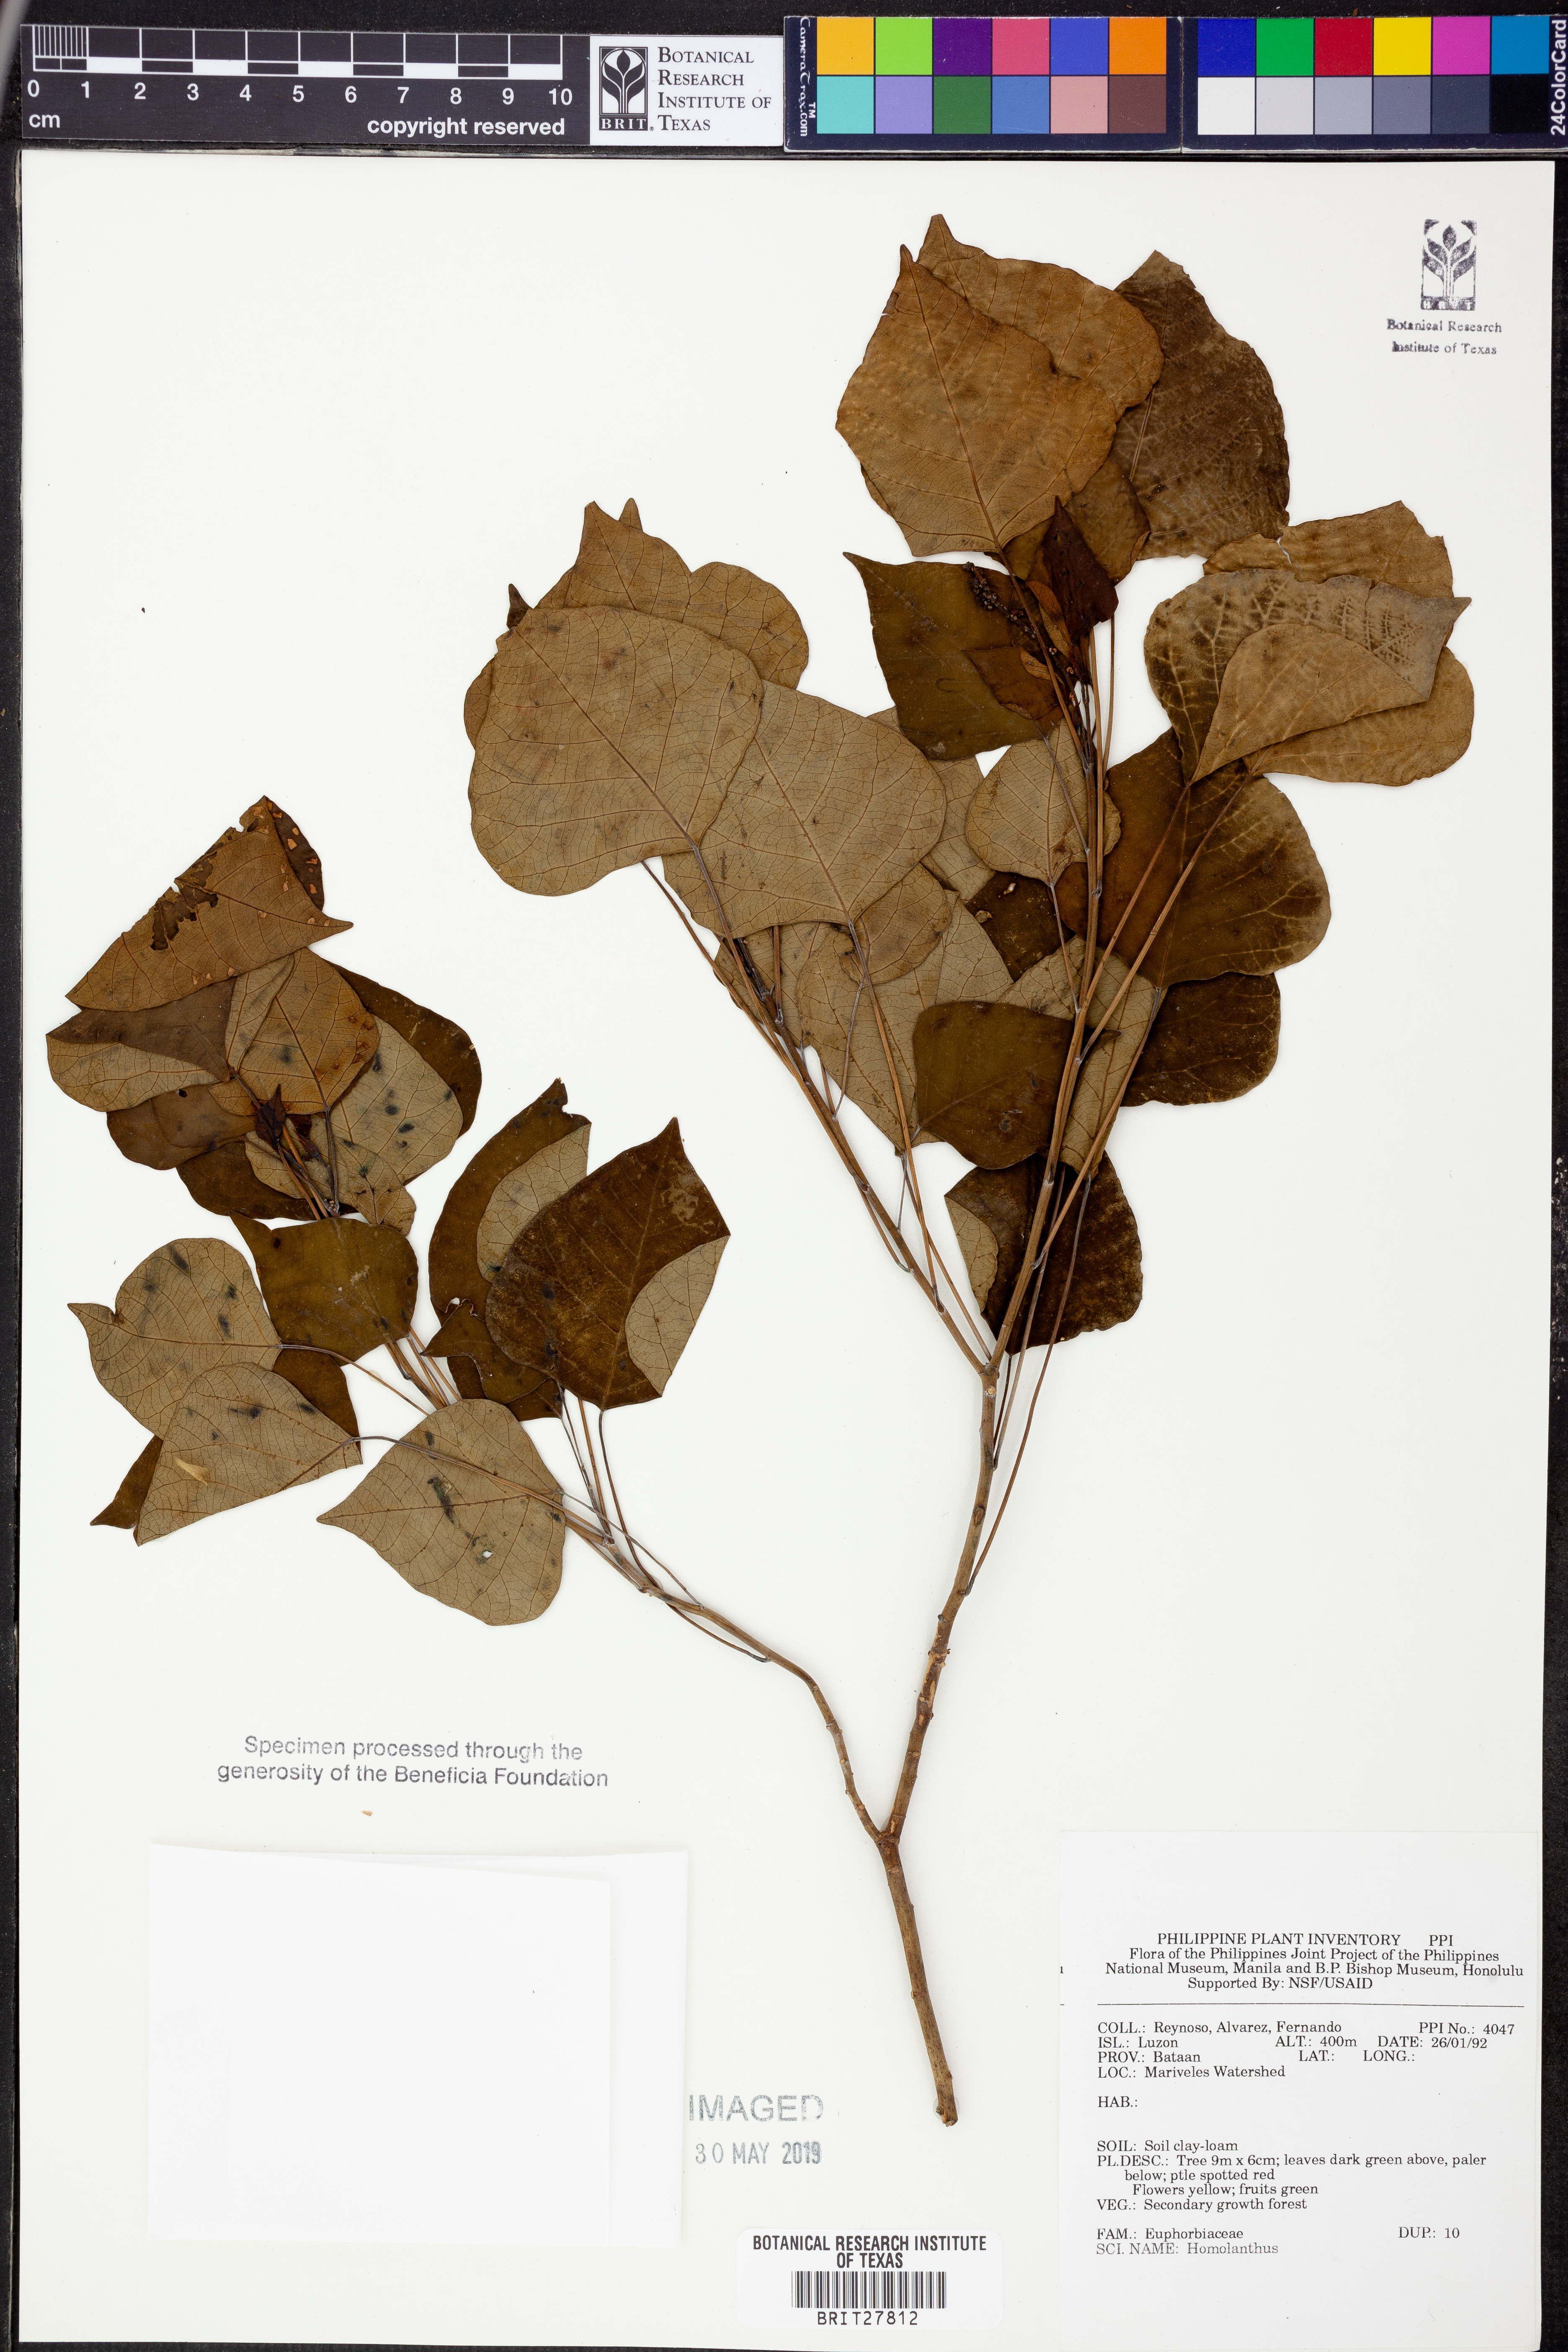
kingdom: Plantae
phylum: Tracheophyta
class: Magnoliopsida
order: Malpighiales
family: Euphorbiaceae
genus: Homalanthus
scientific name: Homalanthus
